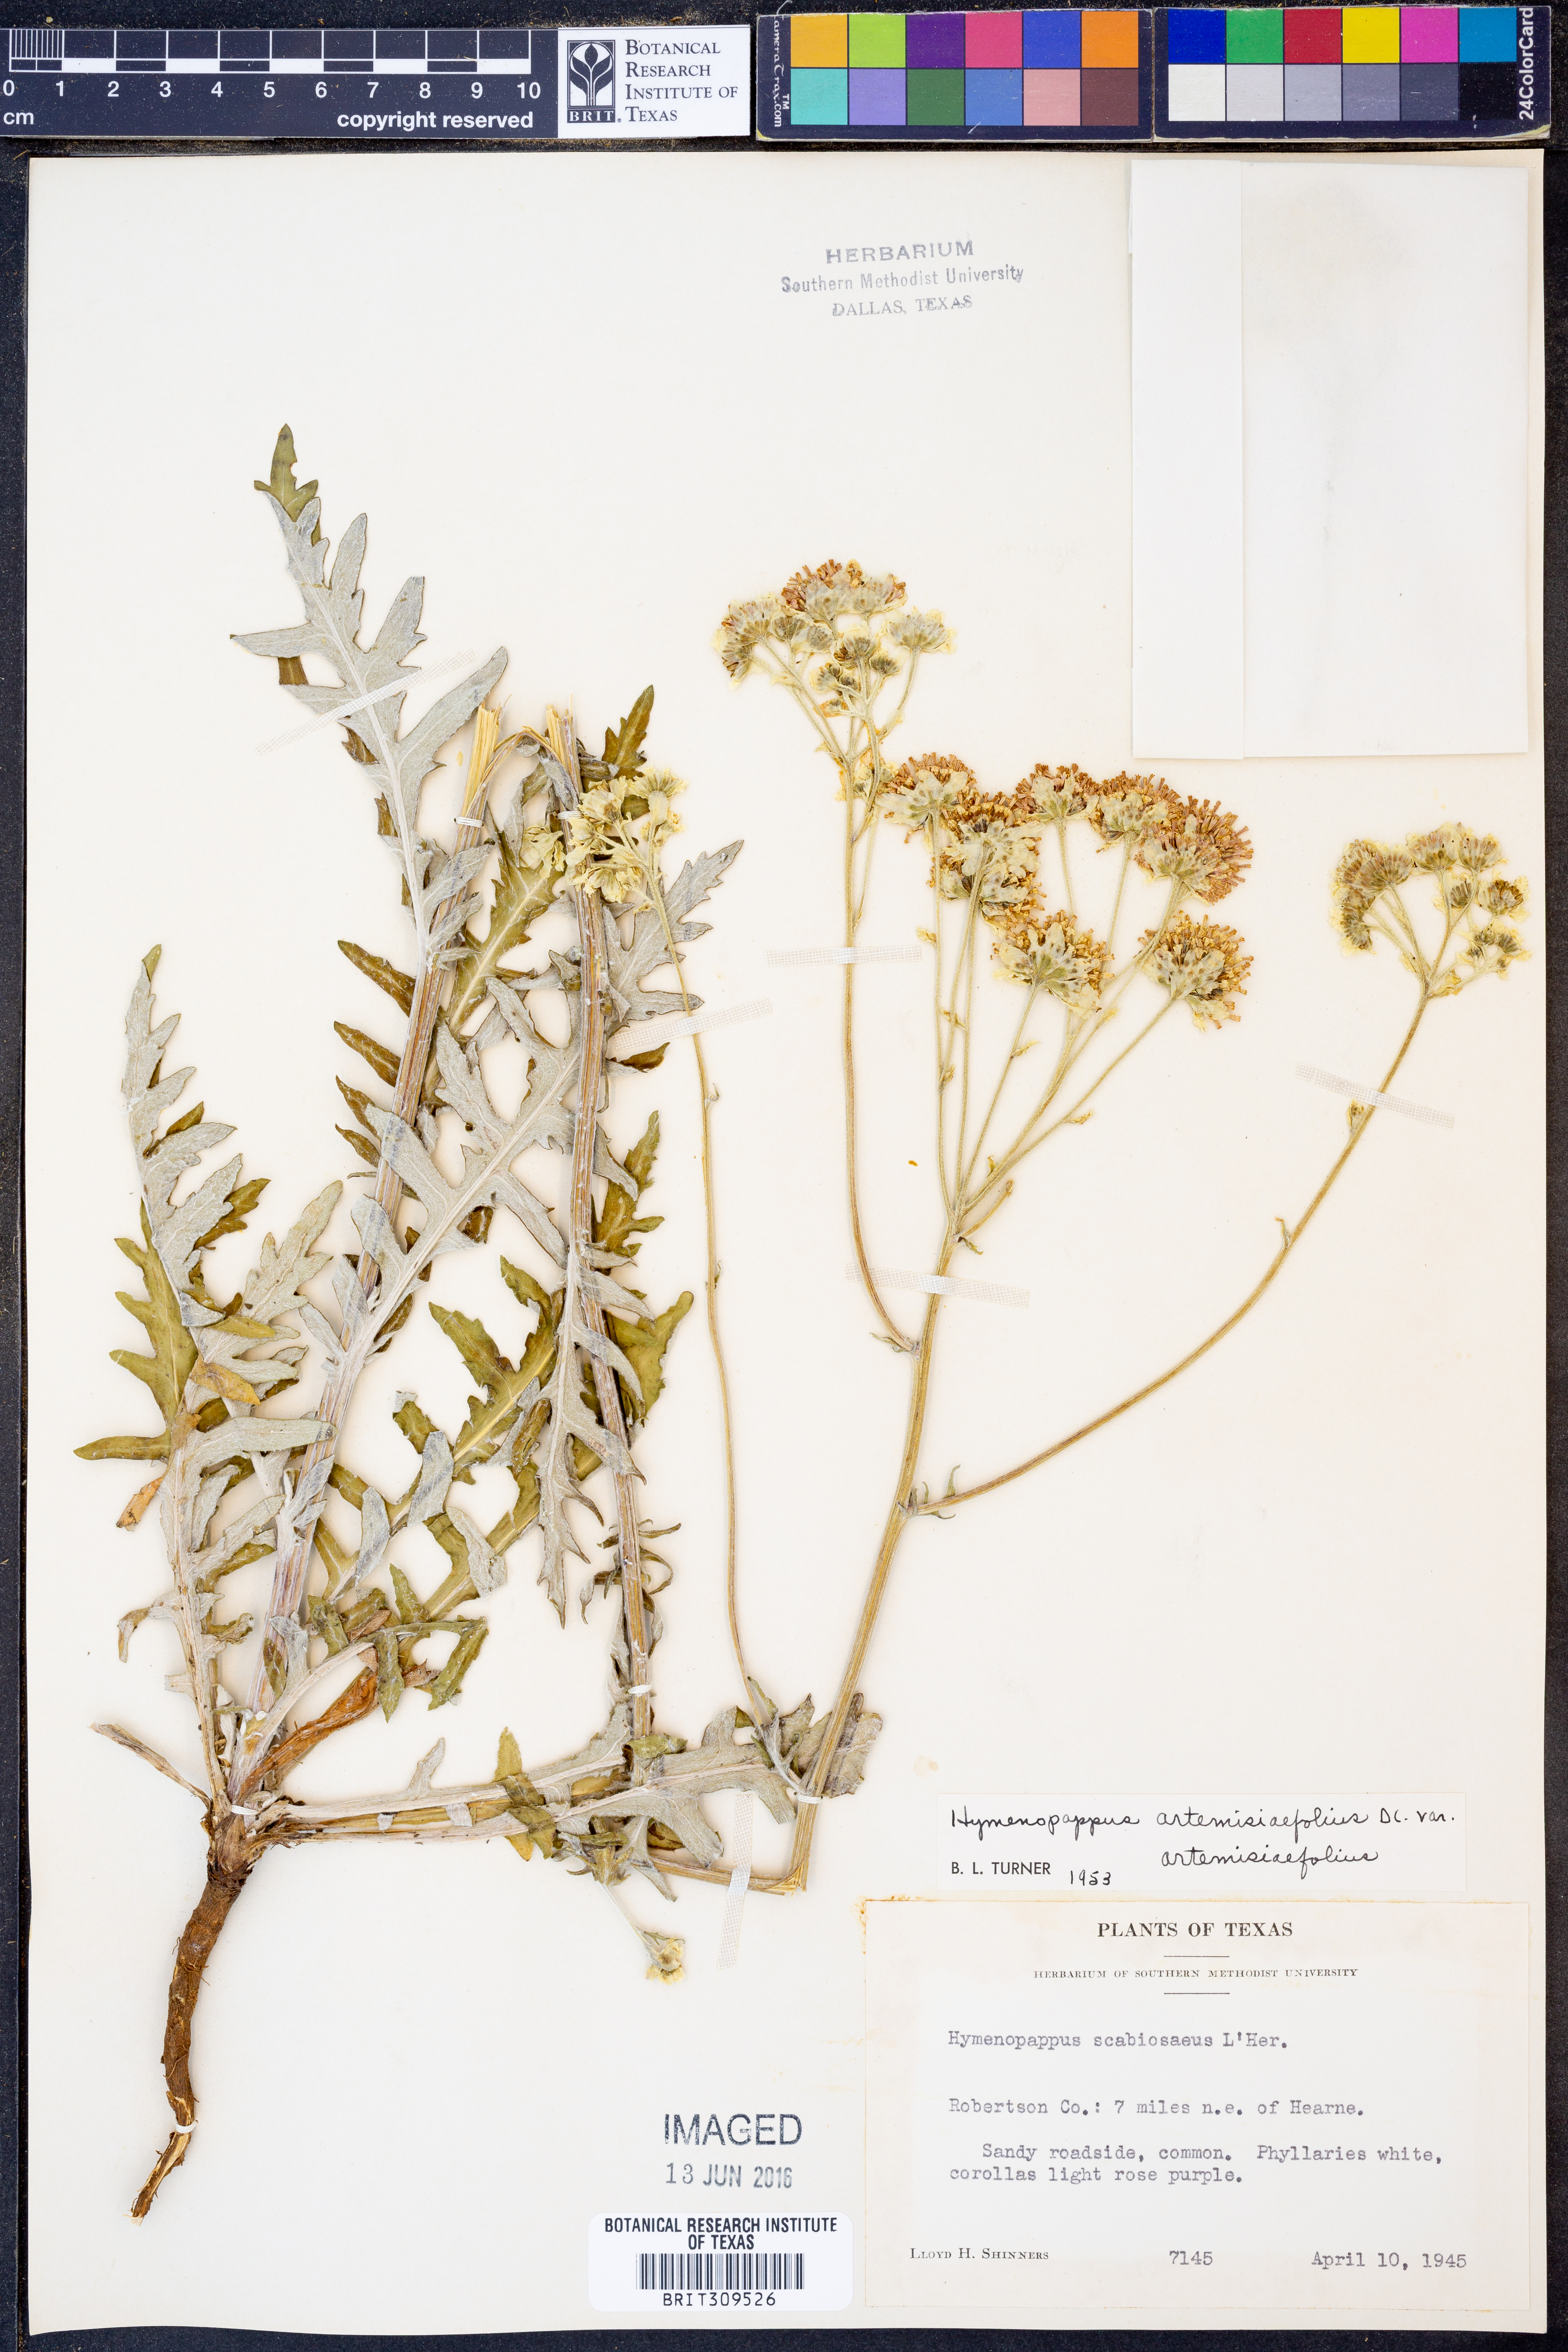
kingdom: Plantae
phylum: Tracheophyta
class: Magnoliopsida
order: Asterales
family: Asteraceae
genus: Hymenopappus
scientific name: Hymenopappus artemisiifolius
